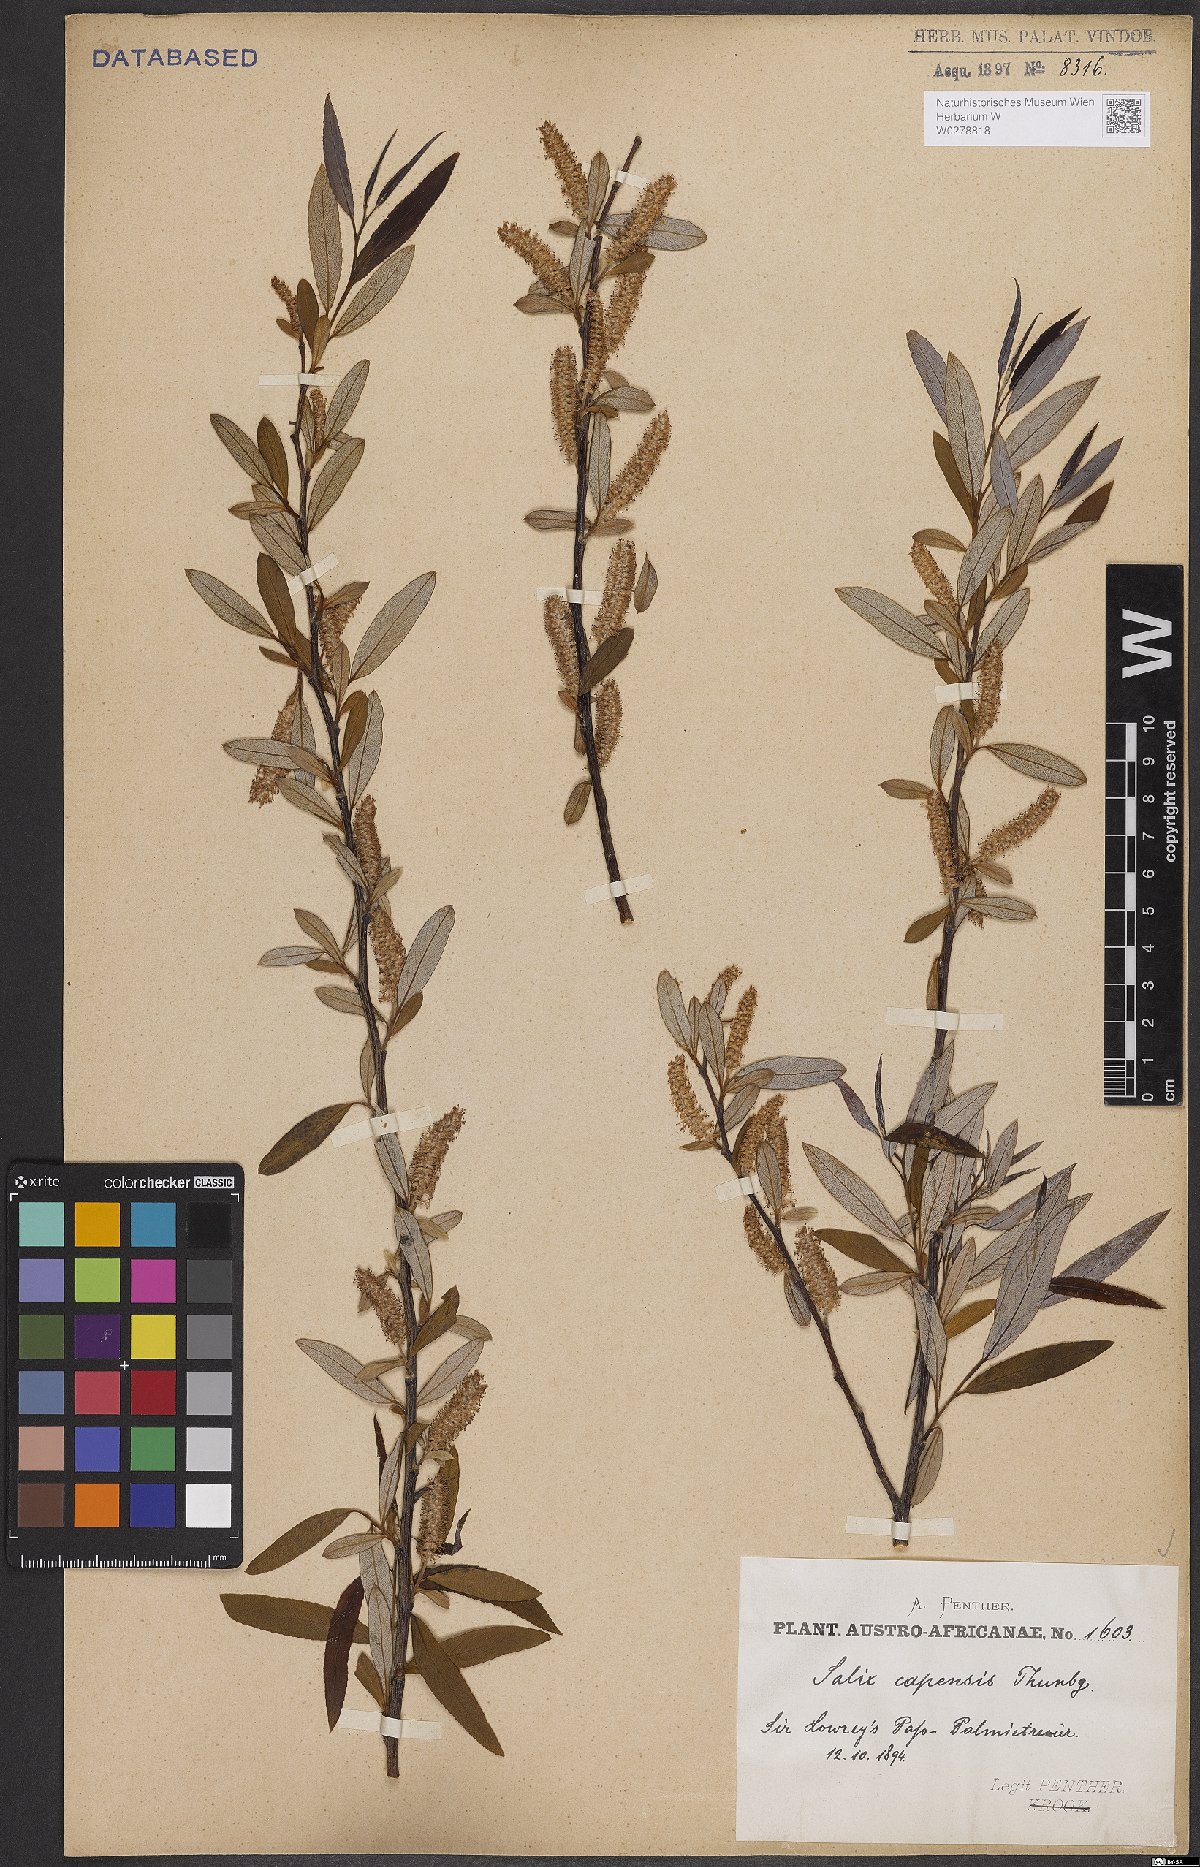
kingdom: Plantae
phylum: Tracheophyta
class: Magnoliopsida
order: Malpighiales
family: Salicaceae
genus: Salix
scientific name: Salix mucronata
